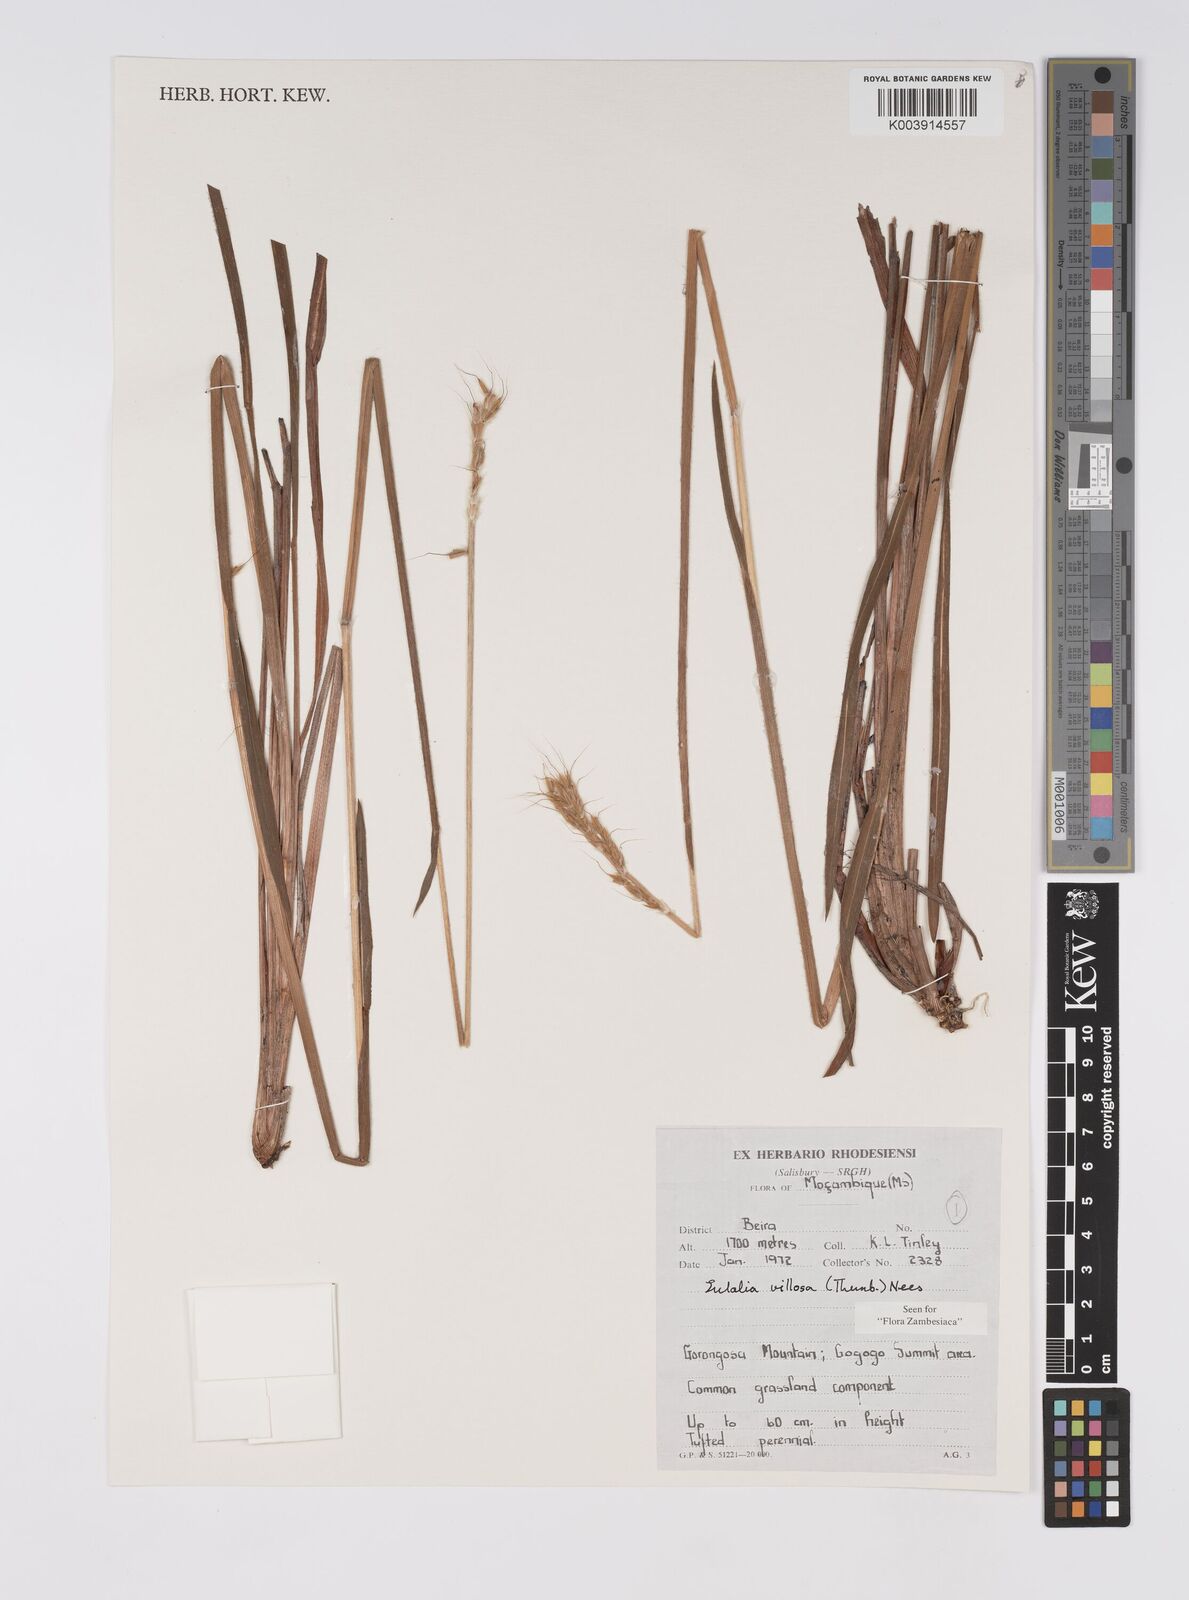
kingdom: Plantae
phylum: Tracheophyta
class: Liliopsida
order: Poales
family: Poaceae
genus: Eulalia
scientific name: Eulalia villosa
